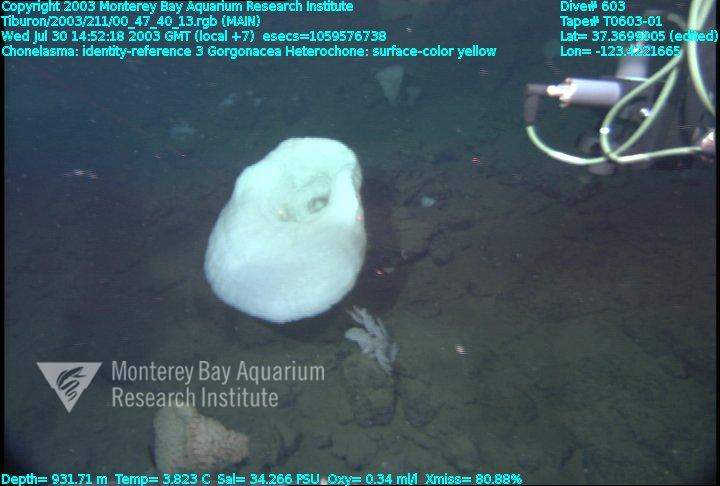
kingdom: Animalia
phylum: Porifera
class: Hexactinellida
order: Sceptrulophora
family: Euretidae
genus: Chonelasma
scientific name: Chonelasma
